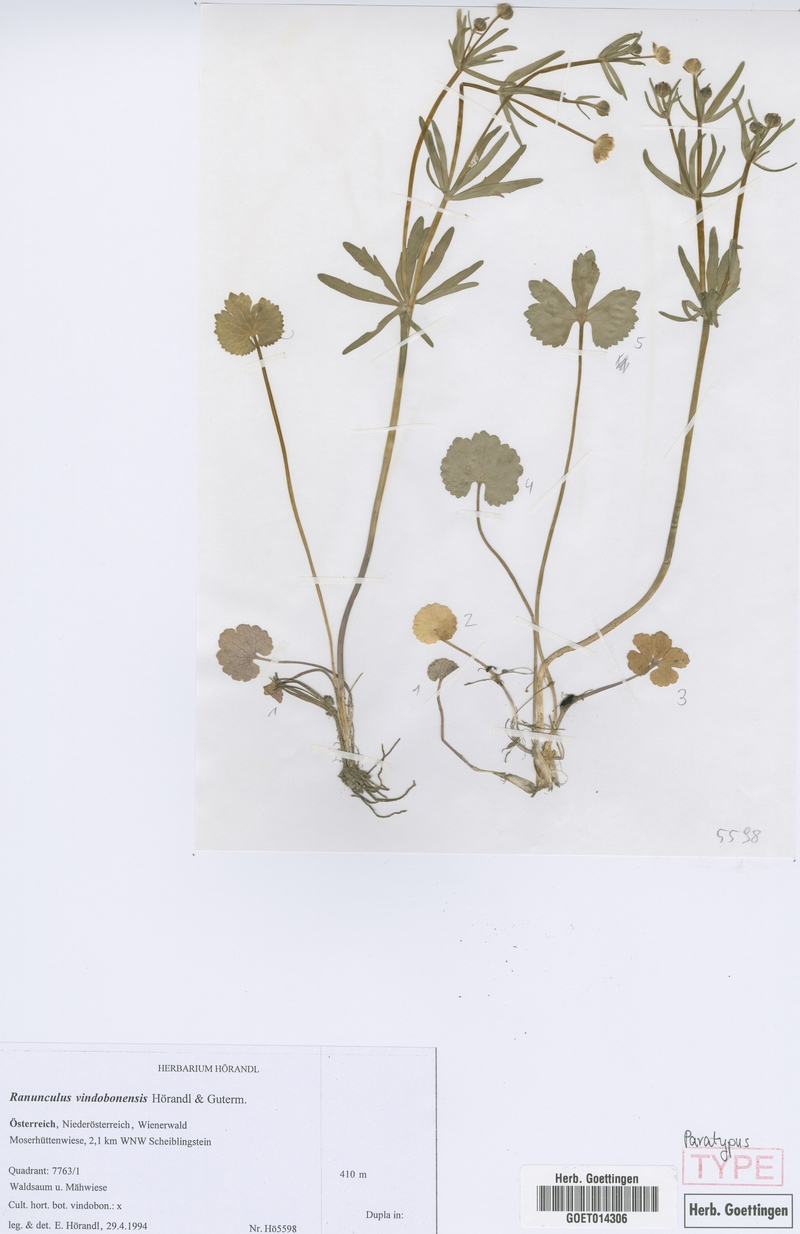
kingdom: Plantae
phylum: Tracheophyta
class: Magnoliopsida
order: Ranunculales
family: Ranunculaceae
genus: Ranunculus
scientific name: Ranunculus vindobonensis
